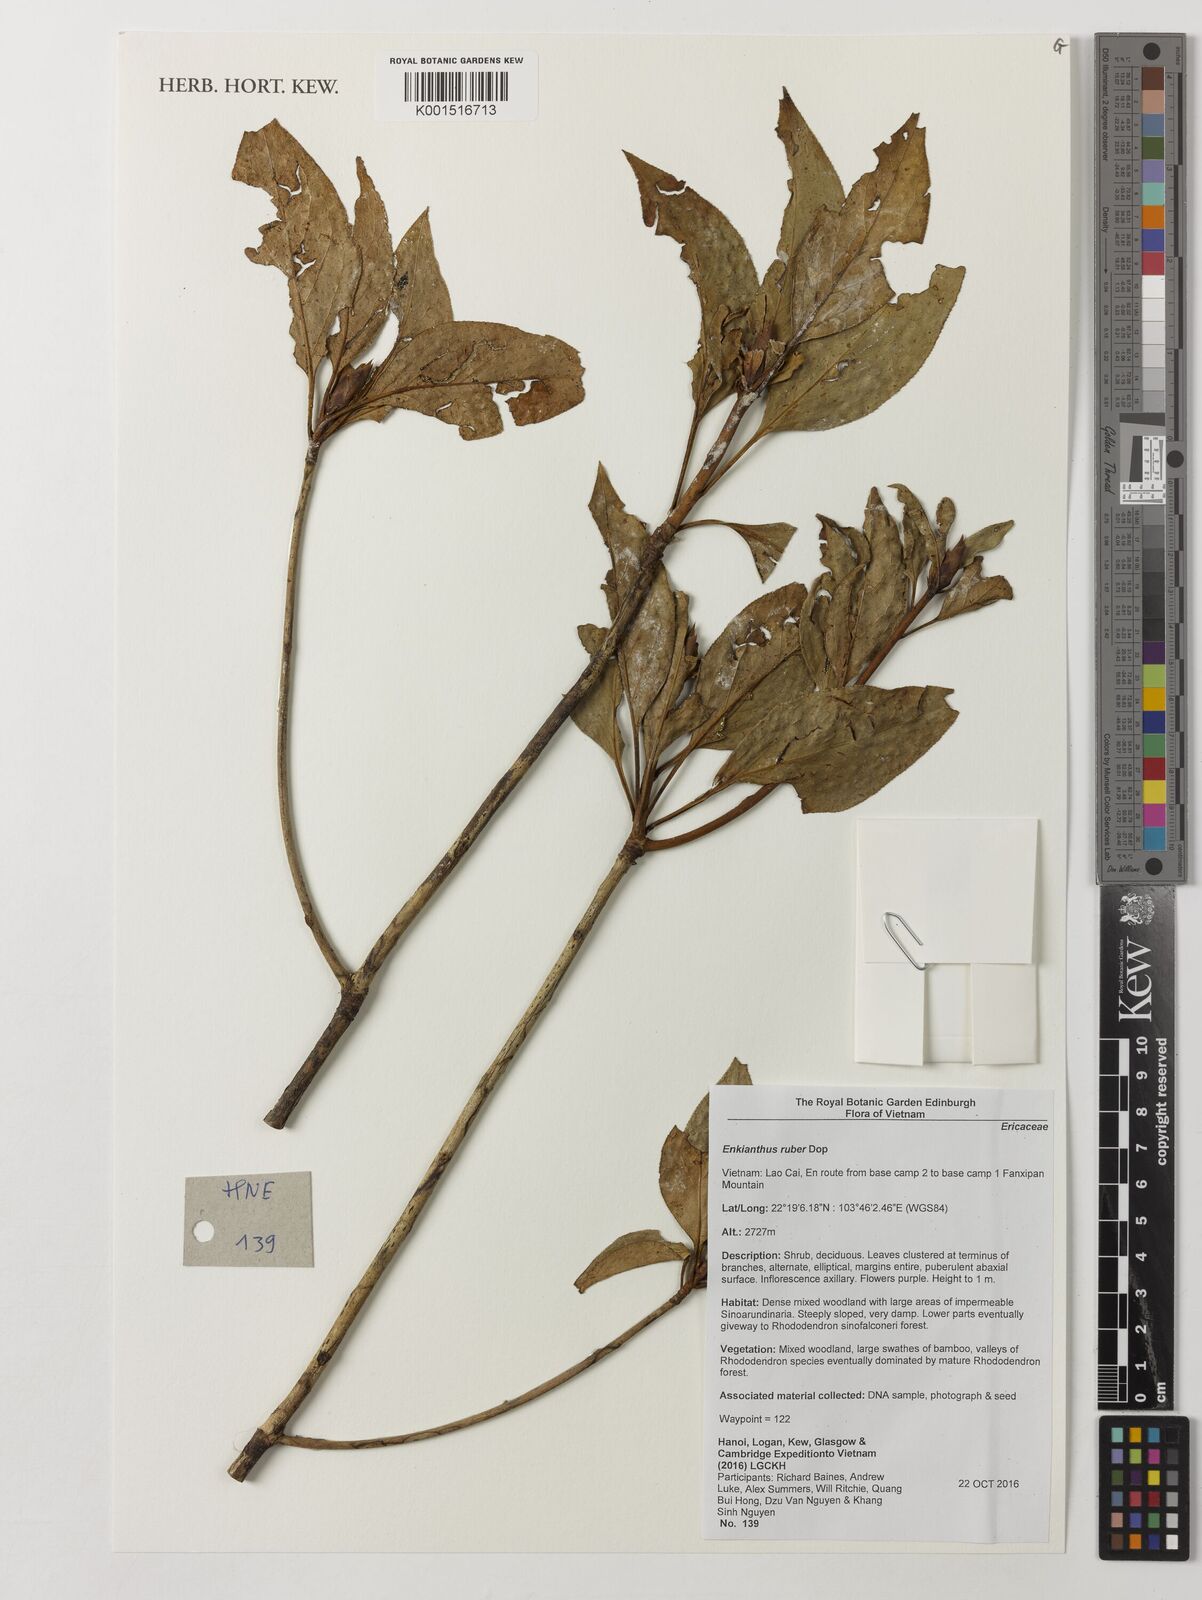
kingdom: Plantae
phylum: Tracheophyta
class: Magnoliopsida
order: Ericales
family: Ericaceae
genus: Enkianthus
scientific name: Enkianthus ruber
